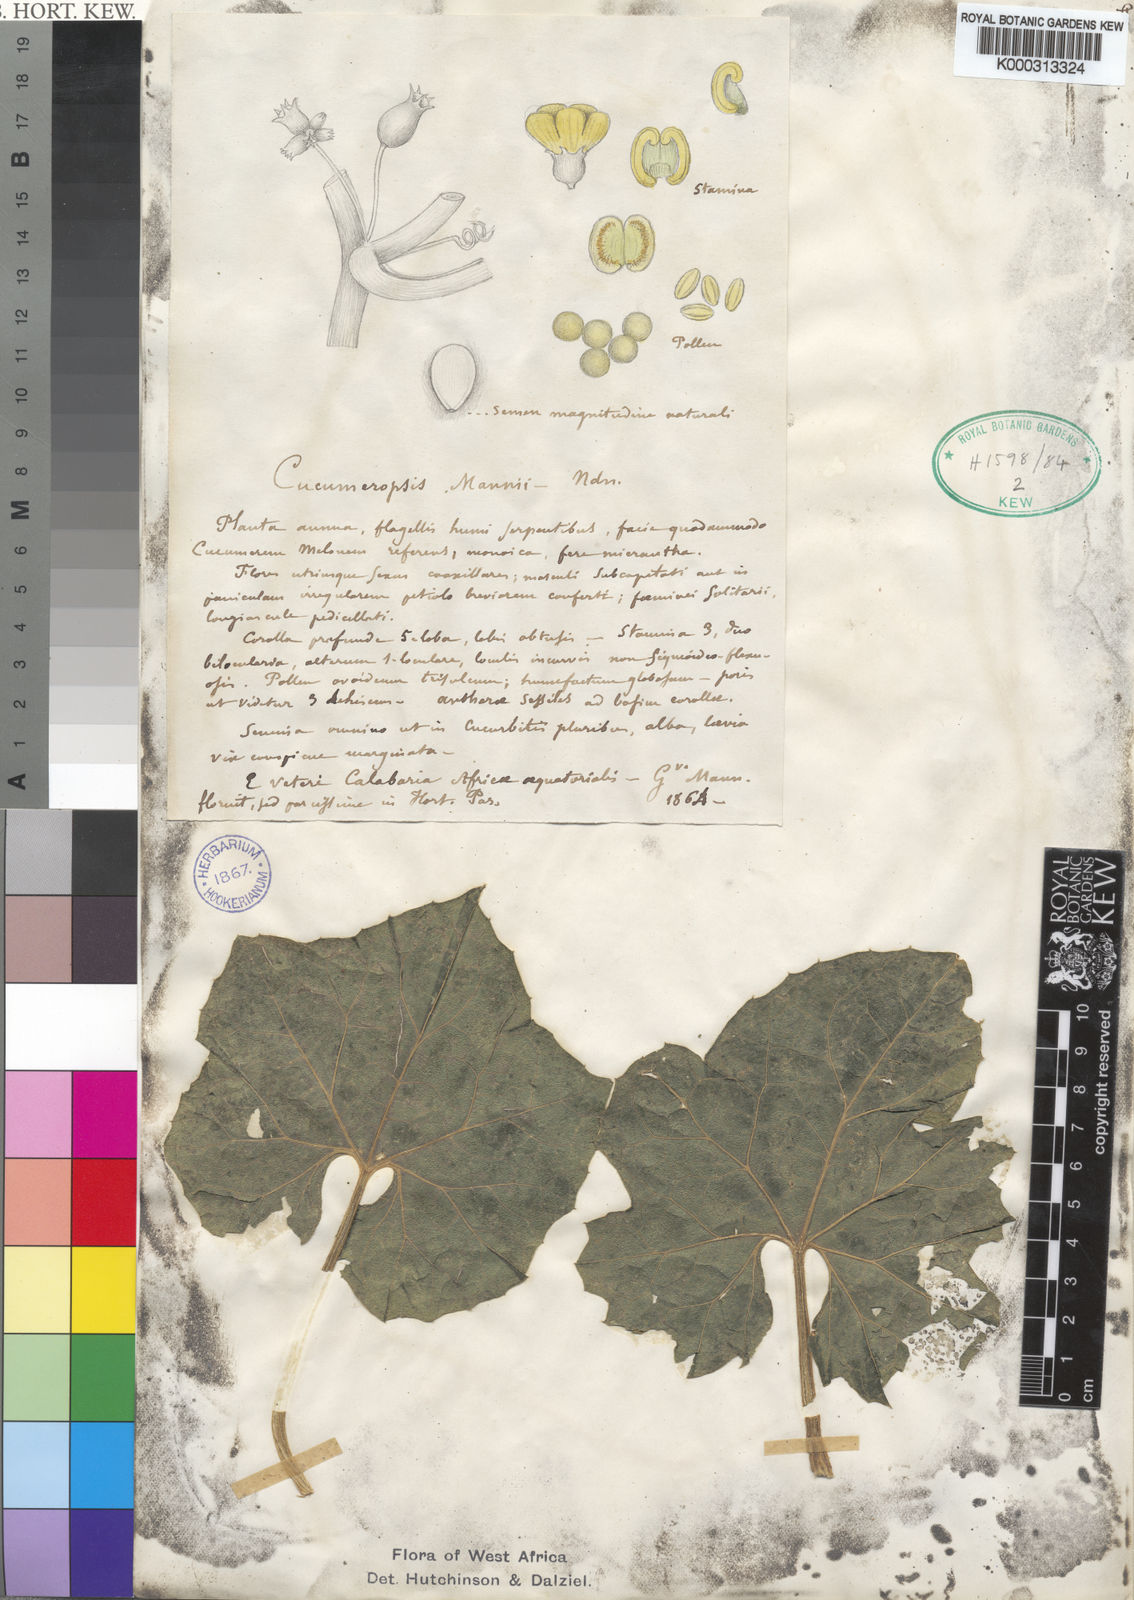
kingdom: Plantae
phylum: Tracheophyta
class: Magnoliopsida
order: Cucurbitales
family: Cucurbitaceae
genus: Melothria
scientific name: Melothria sphaerocarpa
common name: Egusi-itoo
